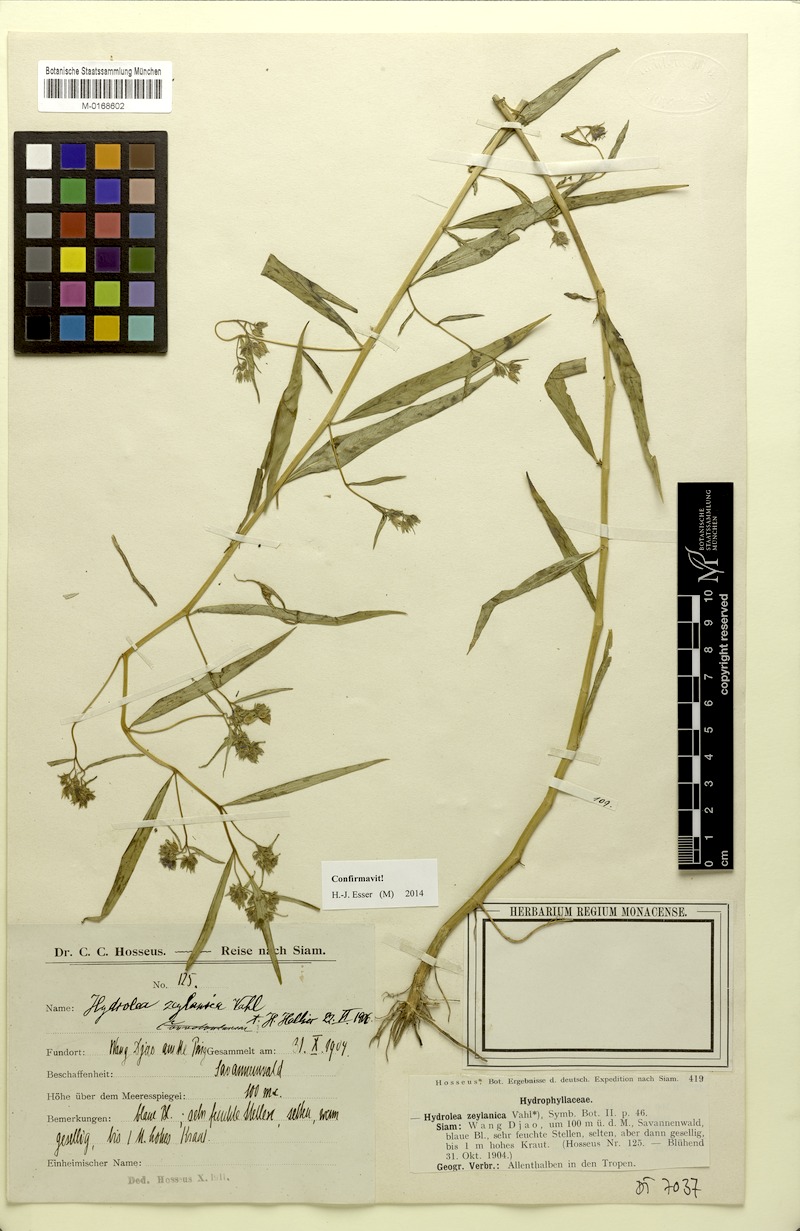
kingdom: Plantae
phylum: Tracheophyta
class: Magnoliopsida
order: Solanales
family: Hydroleaceae
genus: Hydrolea
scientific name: Hydrolea zeylanica
